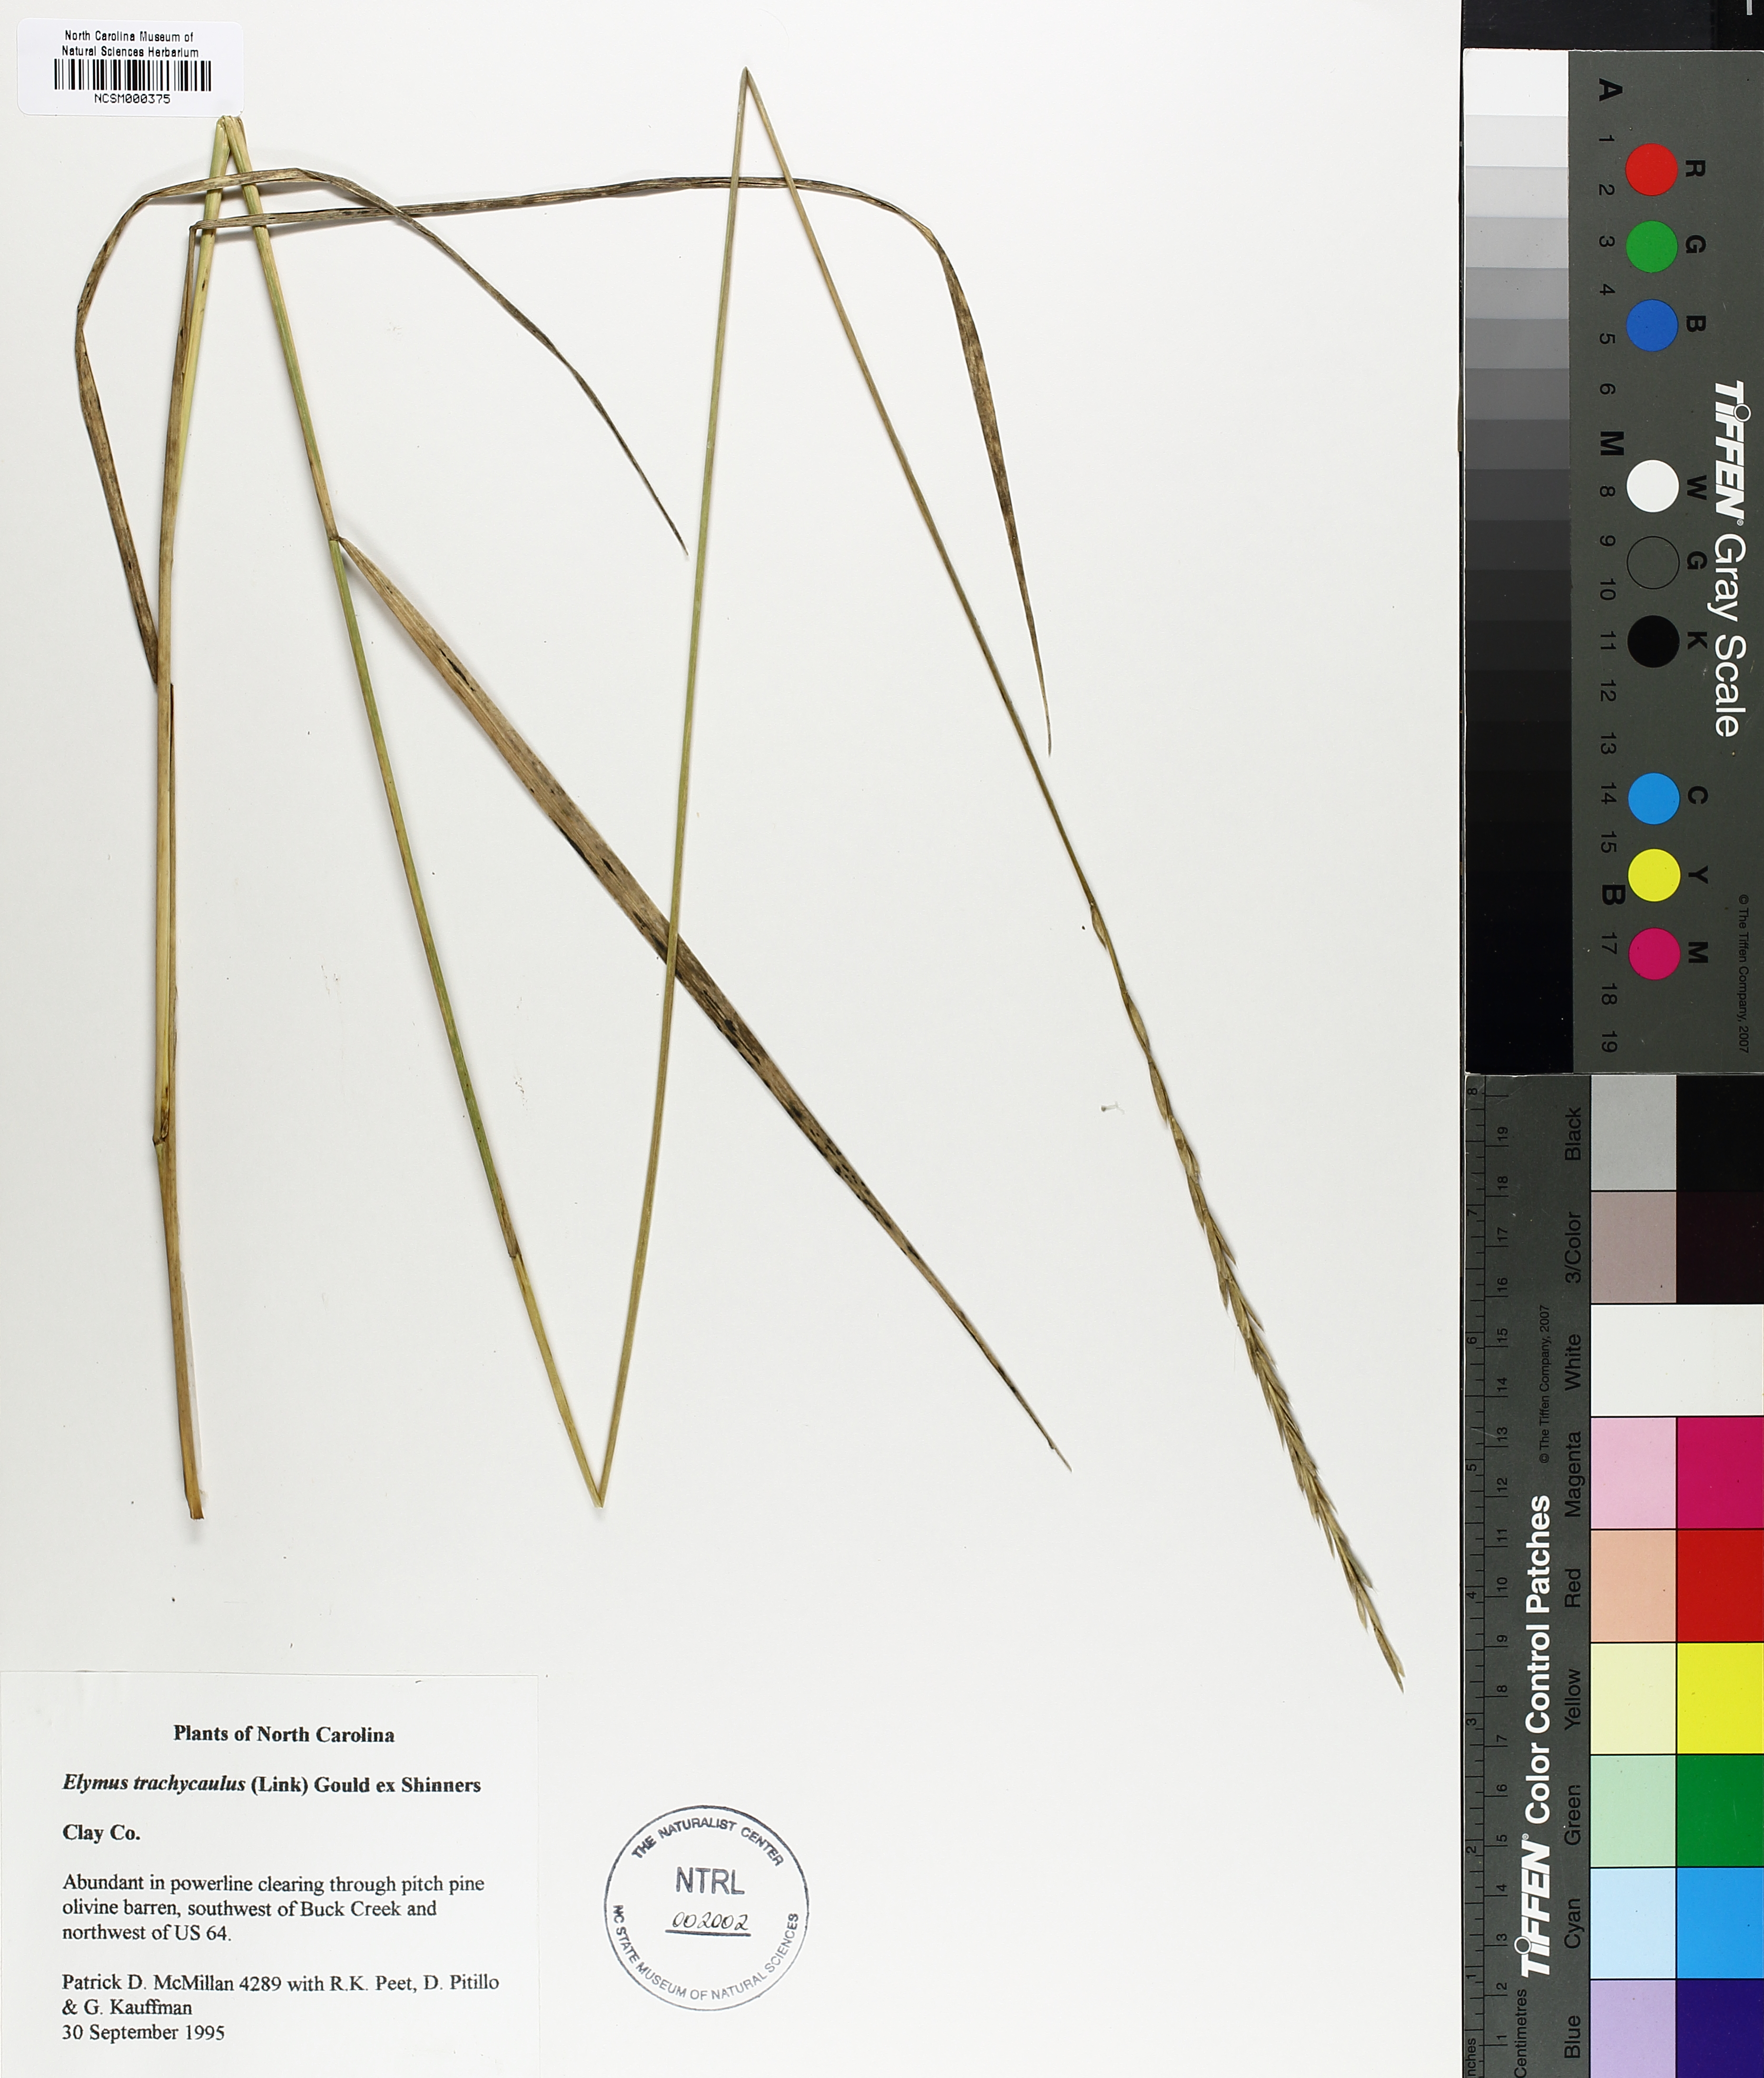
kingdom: Plantae
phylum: Tracheophyta
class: Liliopsida
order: Poales
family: Poaceae
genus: Elymus
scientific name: Elymus violaceus
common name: Arctic wheatgrass
